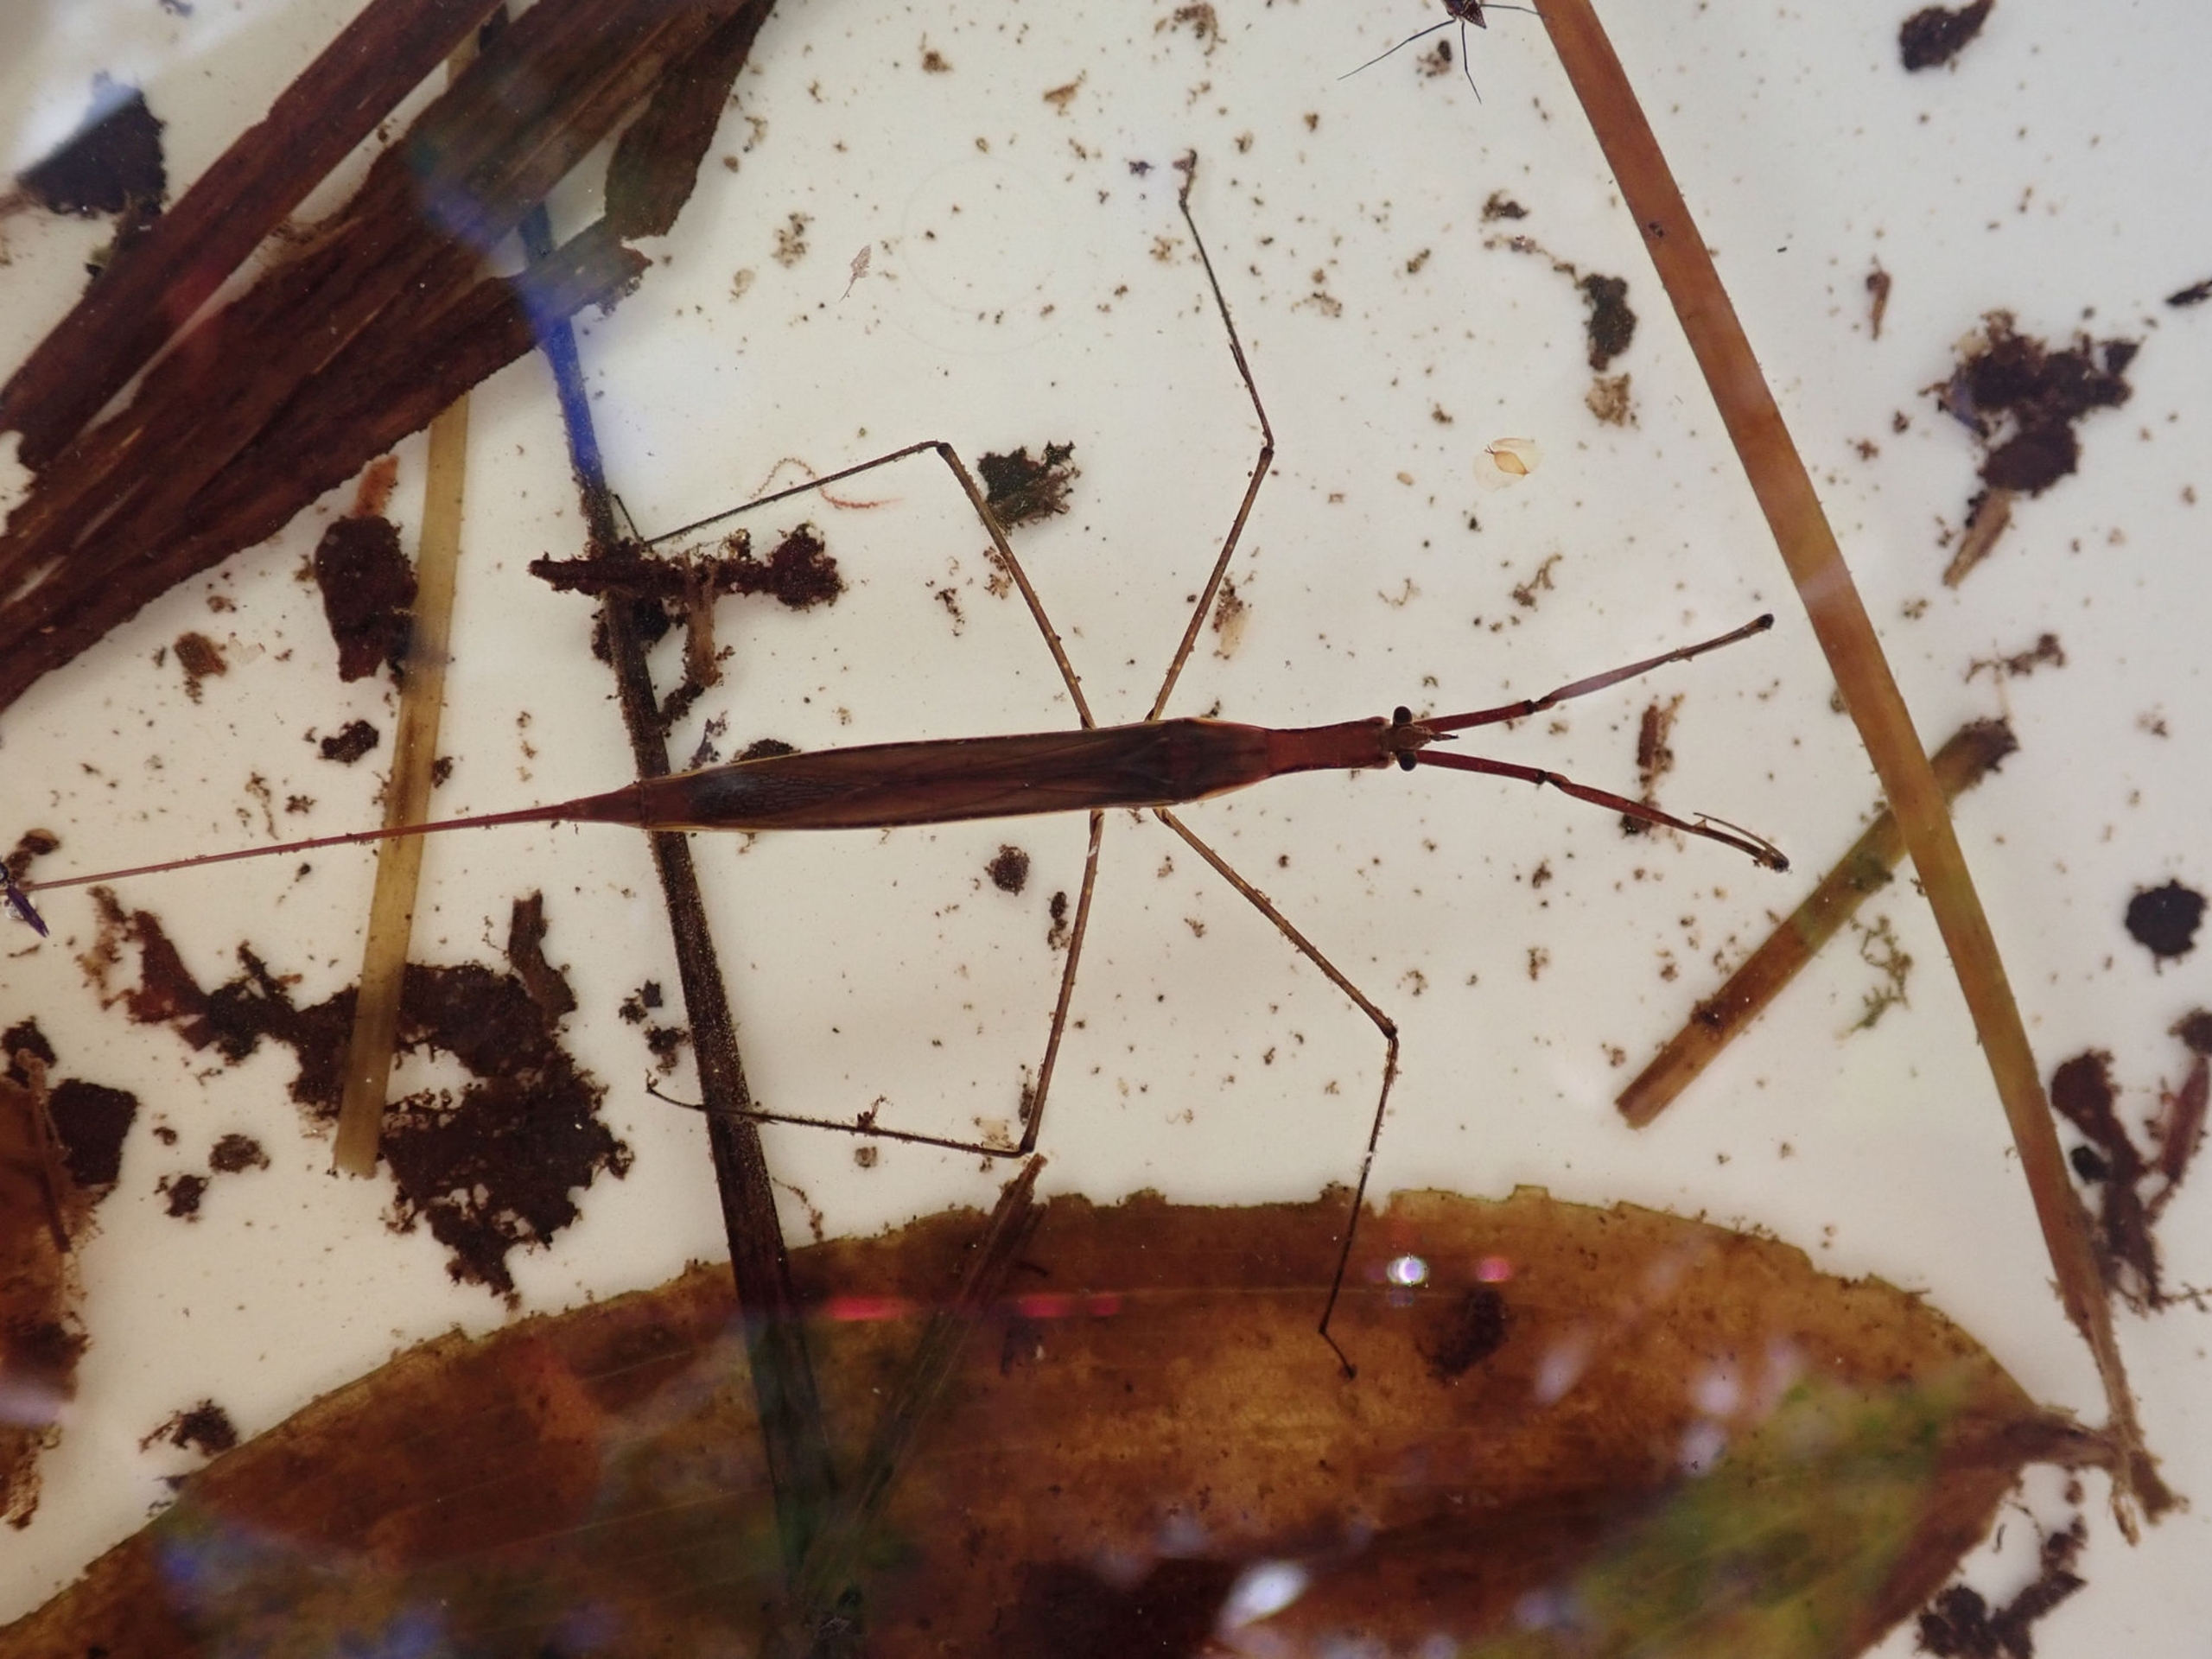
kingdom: Animalia
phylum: Arthropoda
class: Insecta
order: Hemiptera
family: Nepidae
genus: Ranatra
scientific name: Ranatra linearis
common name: Stavtæge
